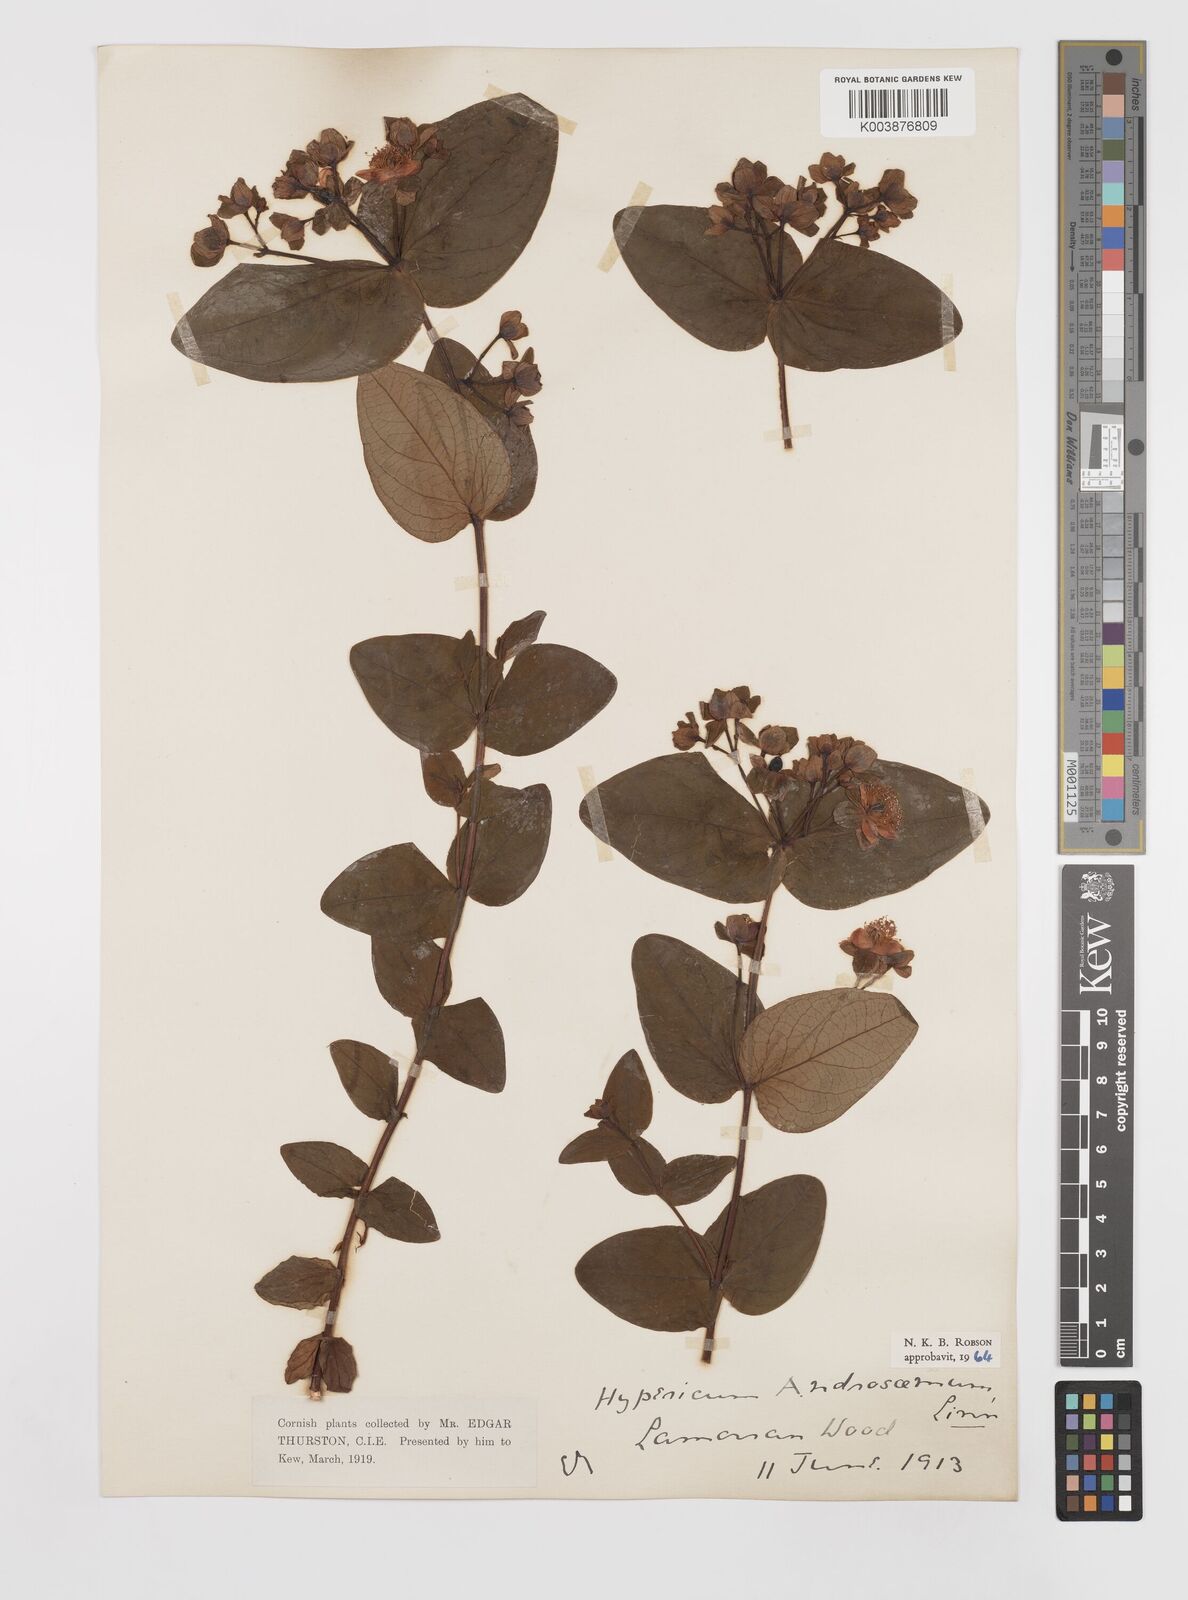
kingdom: Plantae
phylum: Tracheophyta
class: Magnoliopsida
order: Malpighiales
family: Hypericaceae
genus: Hypericum
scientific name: Hypericum androsaemum
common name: Sweet-amber
